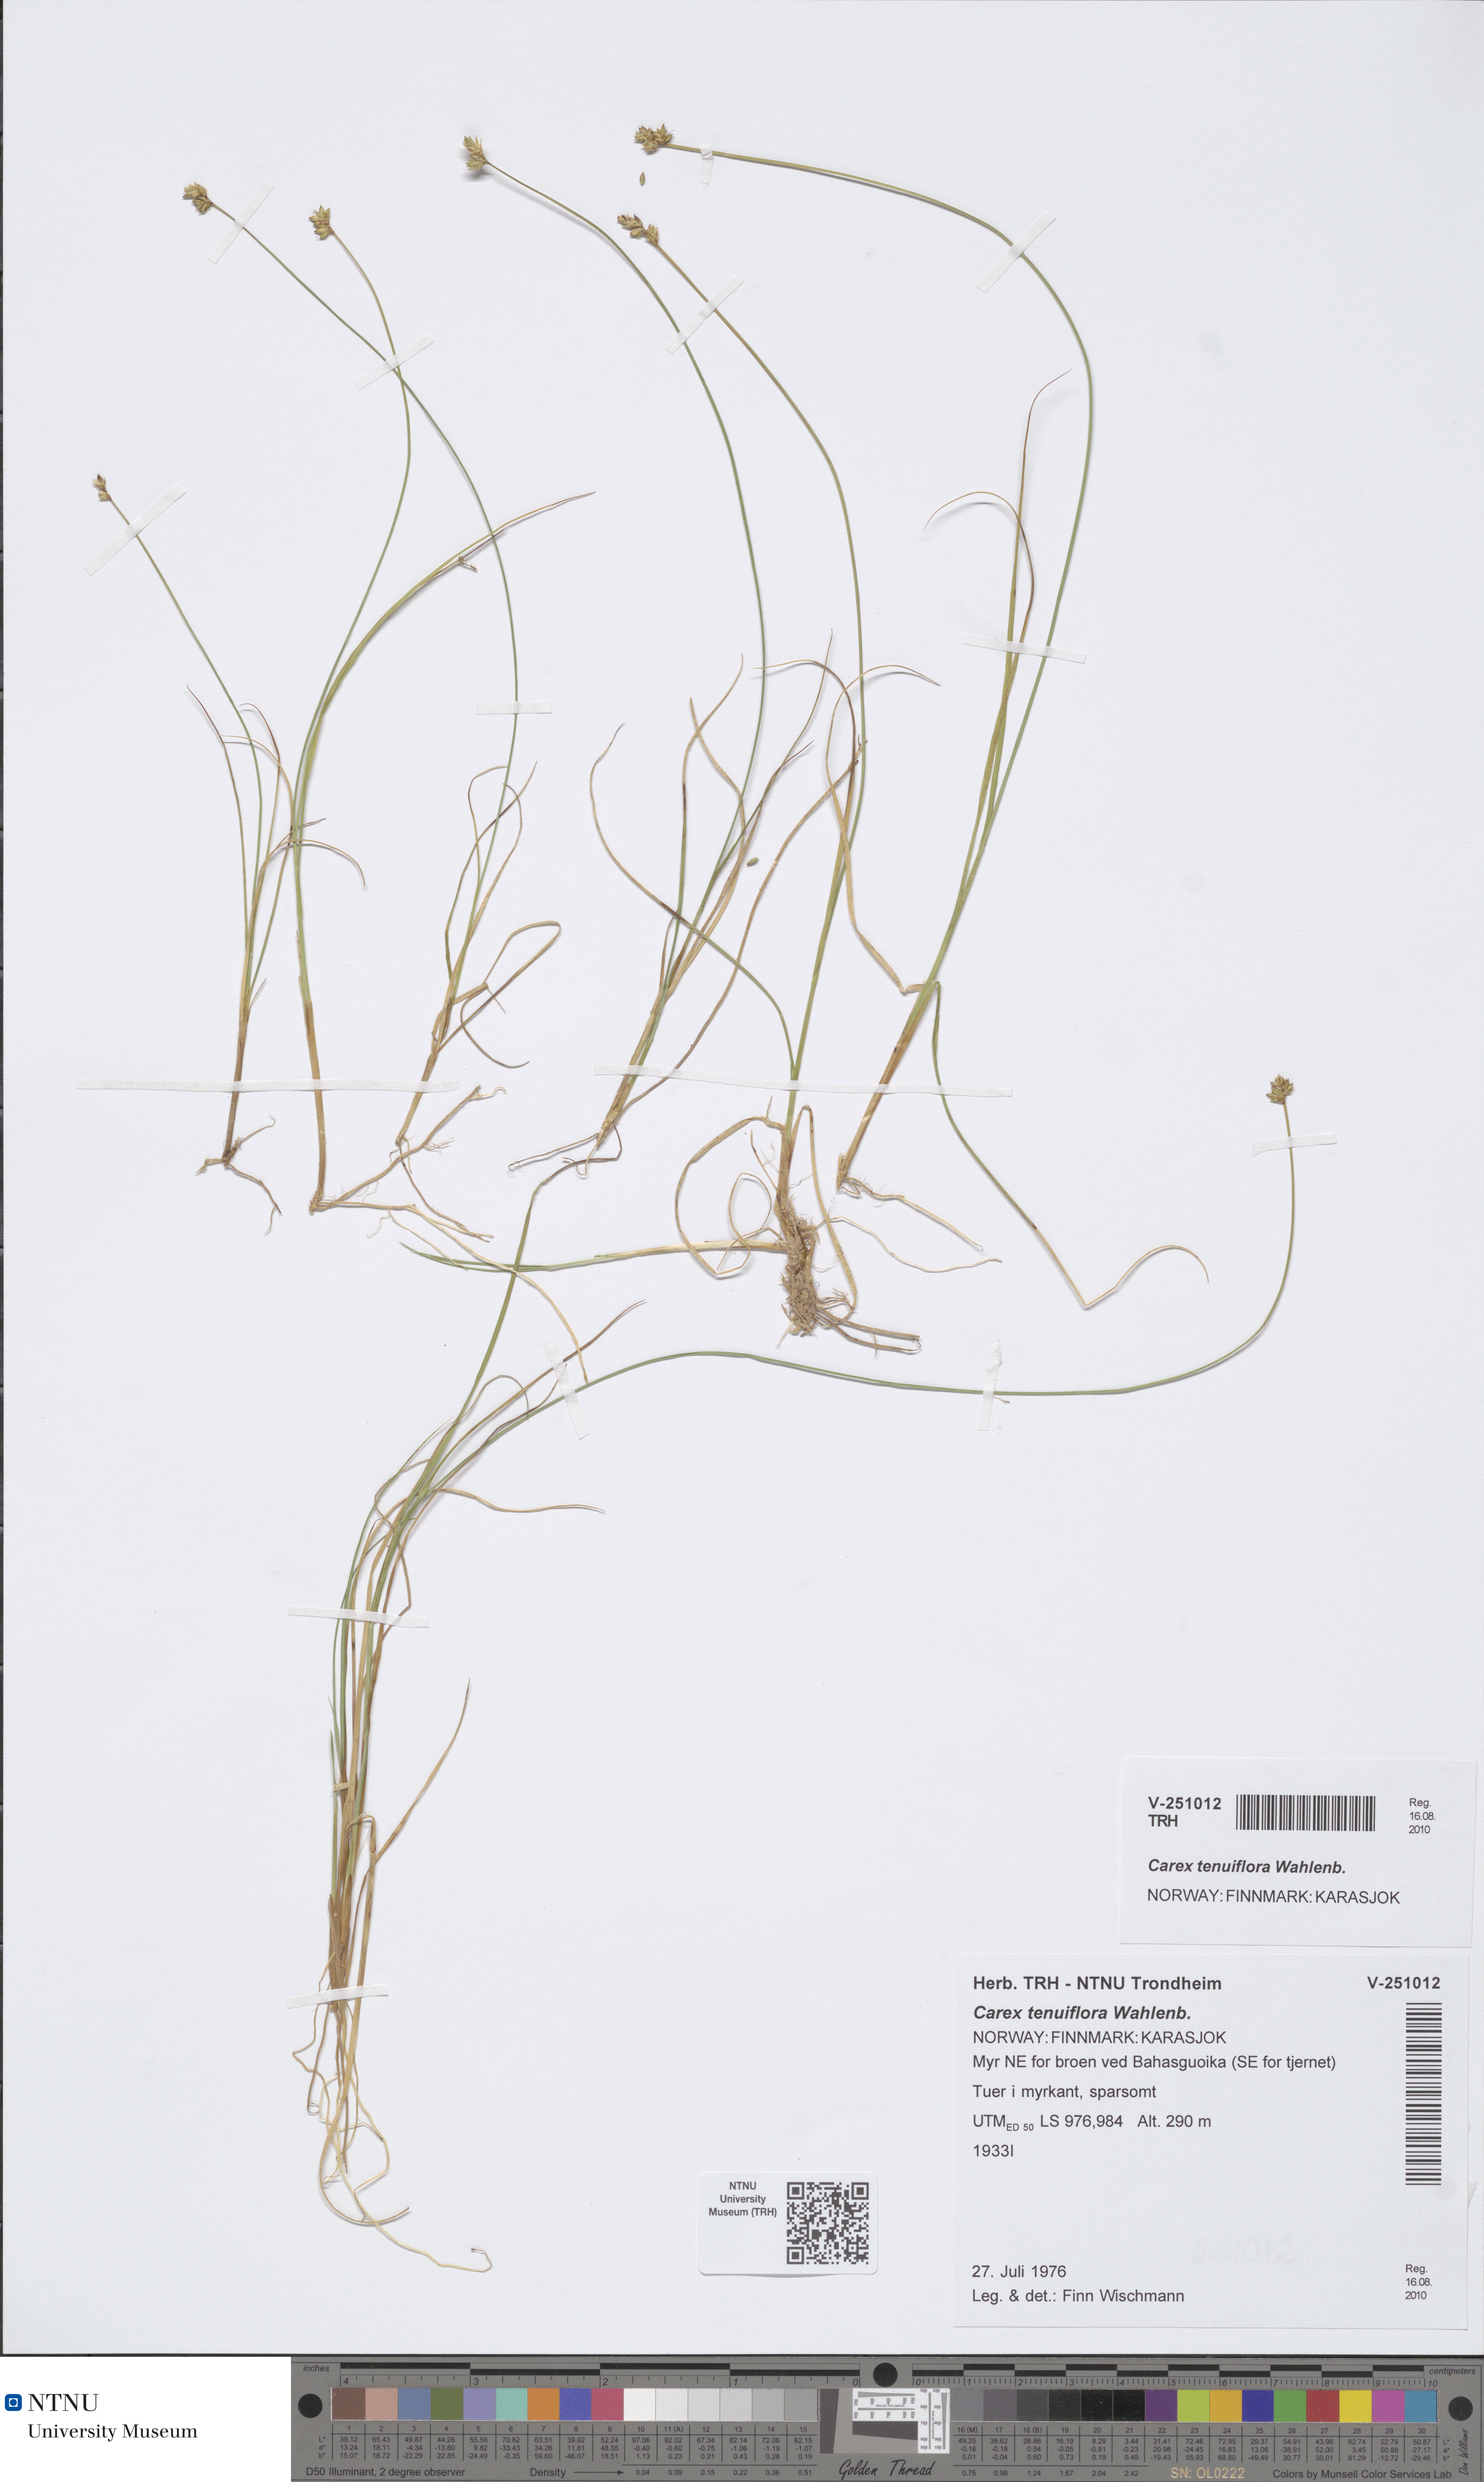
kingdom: Plantae
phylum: Tracheophyta
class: Liliopsida
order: Poales
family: Cyperaceae
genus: Carex
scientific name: Carex tenuiflora
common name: Sparse-flowered sedge
